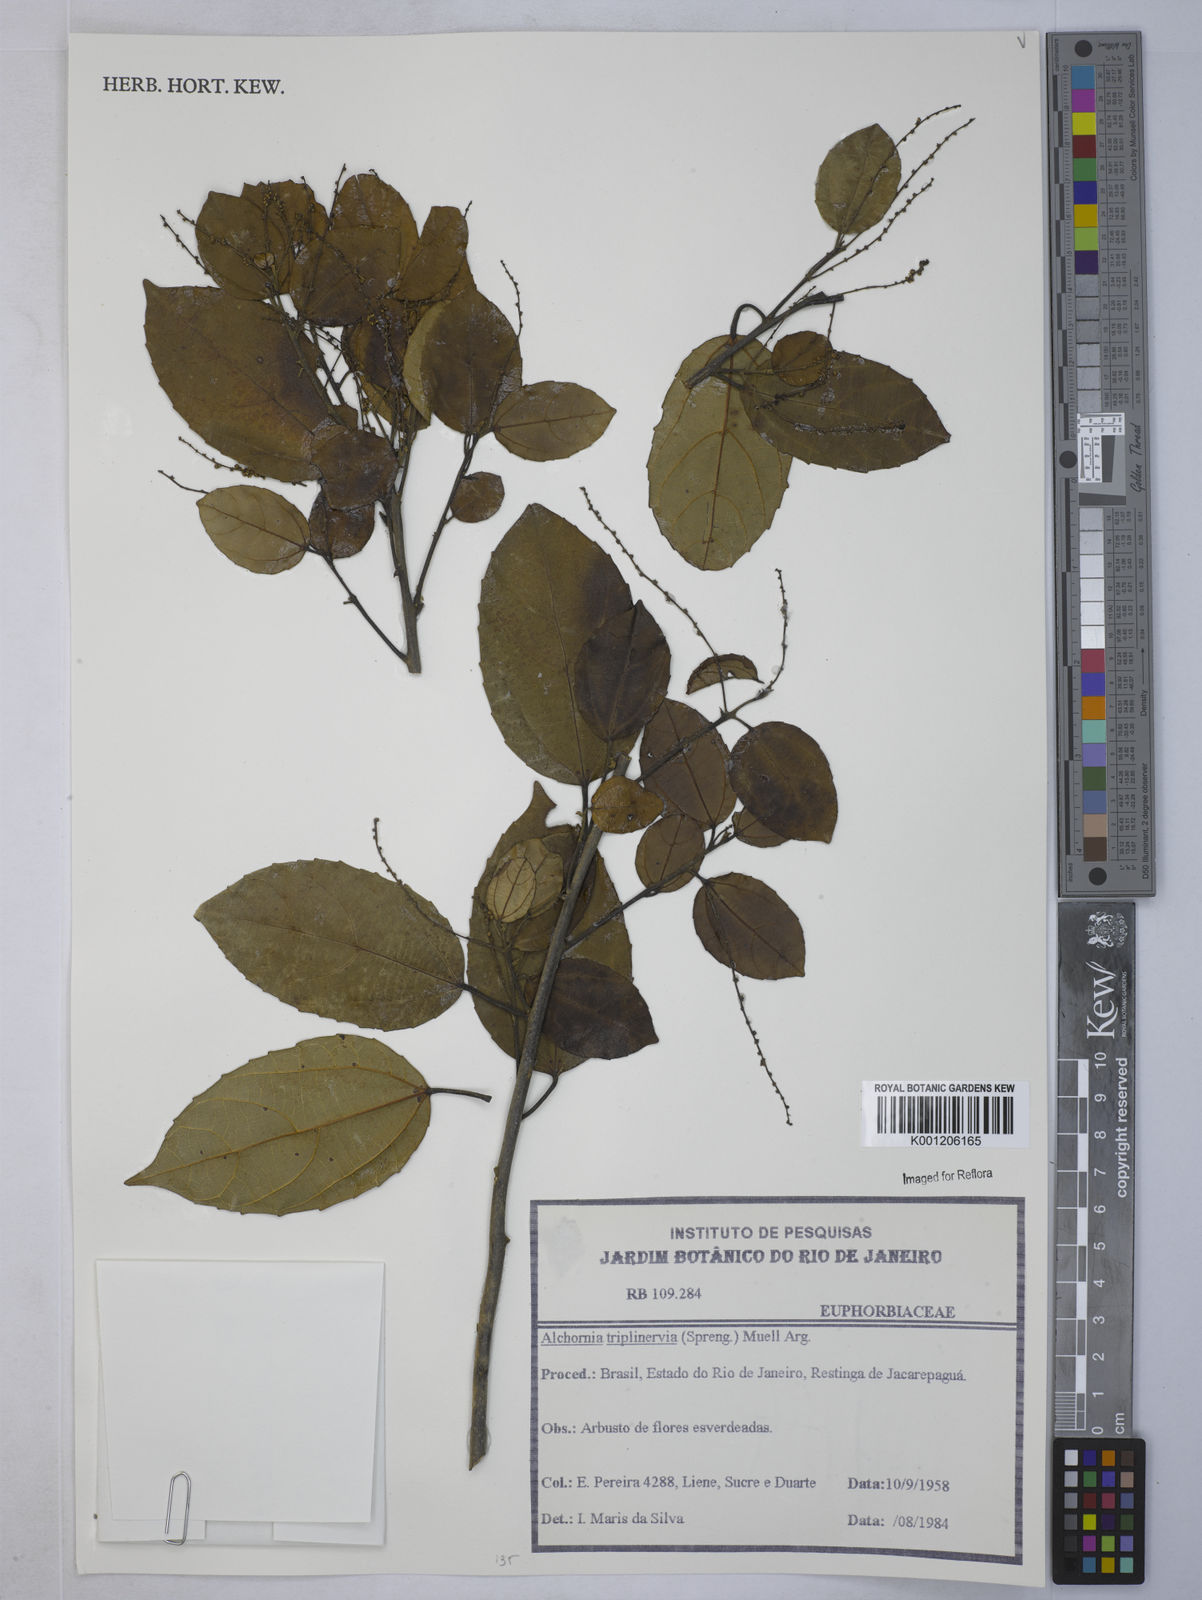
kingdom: Plantae
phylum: Tracheophyta
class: Magnoliopsida
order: Malpighiales
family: Euphorbiaceae
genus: Alchornea
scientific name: Alchornea
